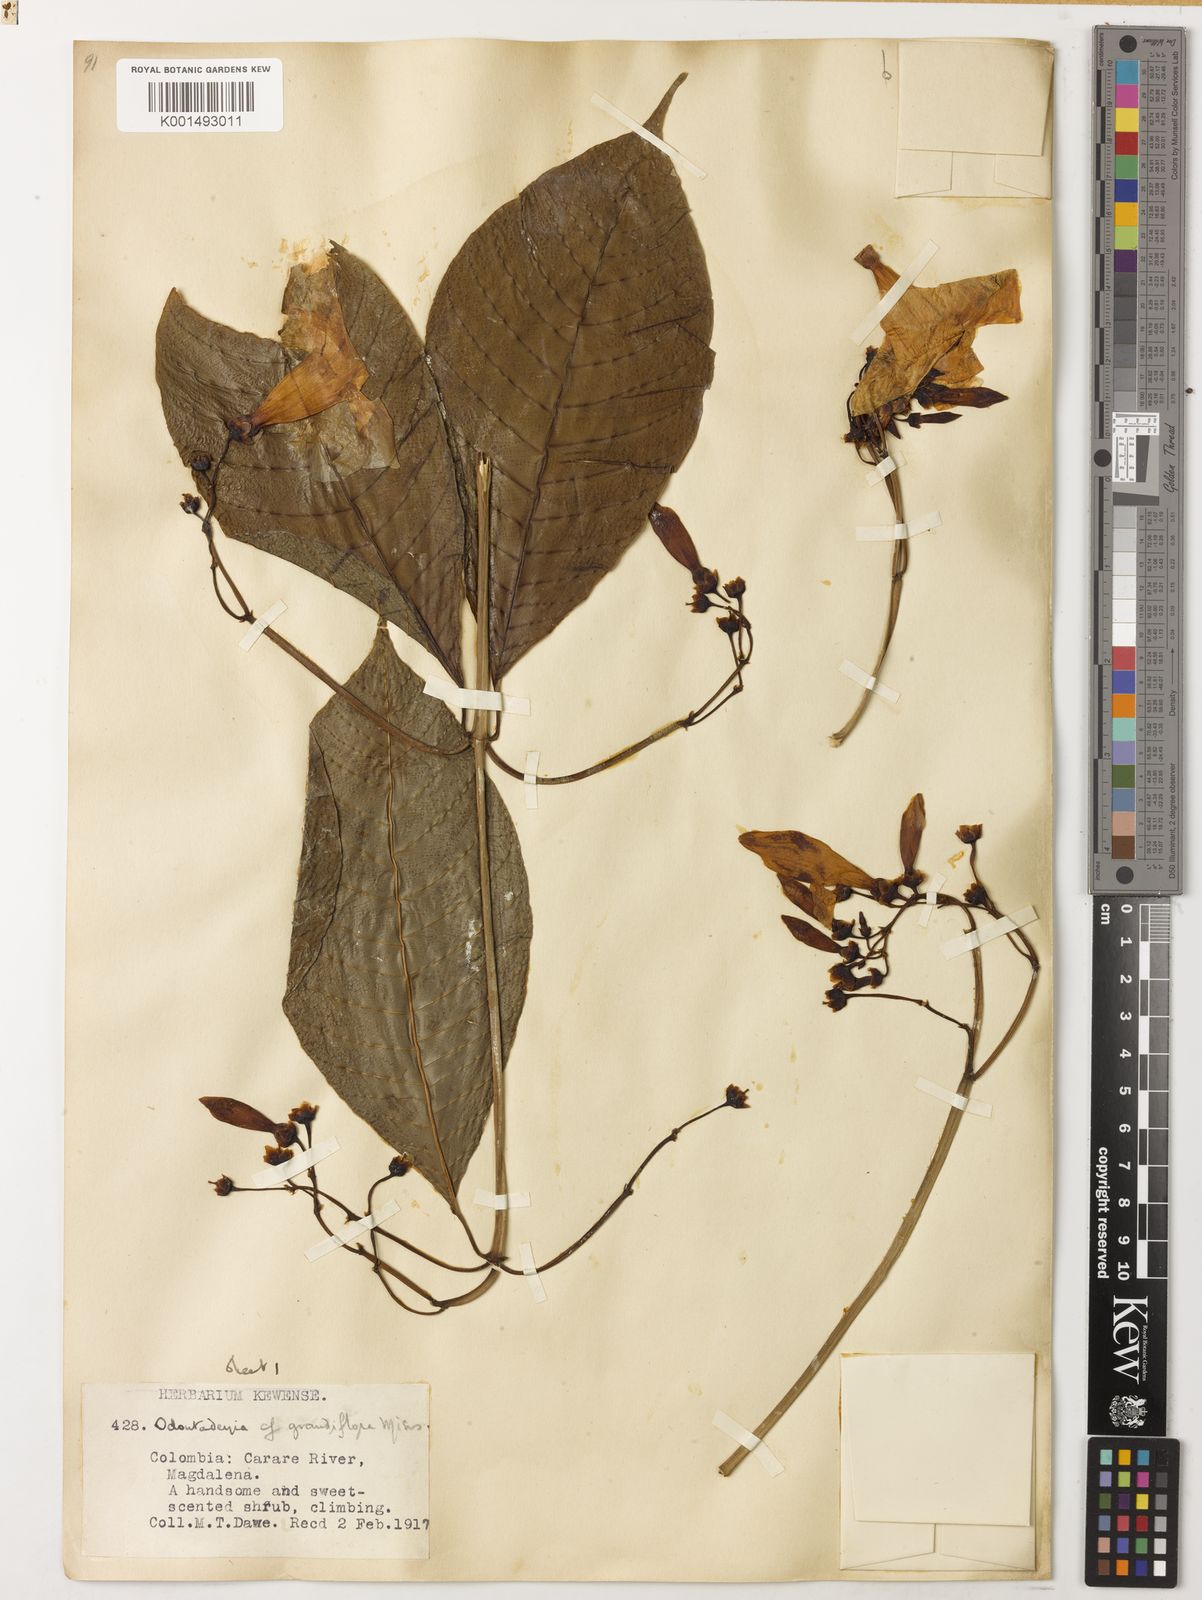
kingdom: Plantae
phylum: Tracheophyta
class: Magnoliopsida
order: Gentianales
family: Apocynaceae
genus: Odontadenia
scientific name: Odontadenia semidigyna
